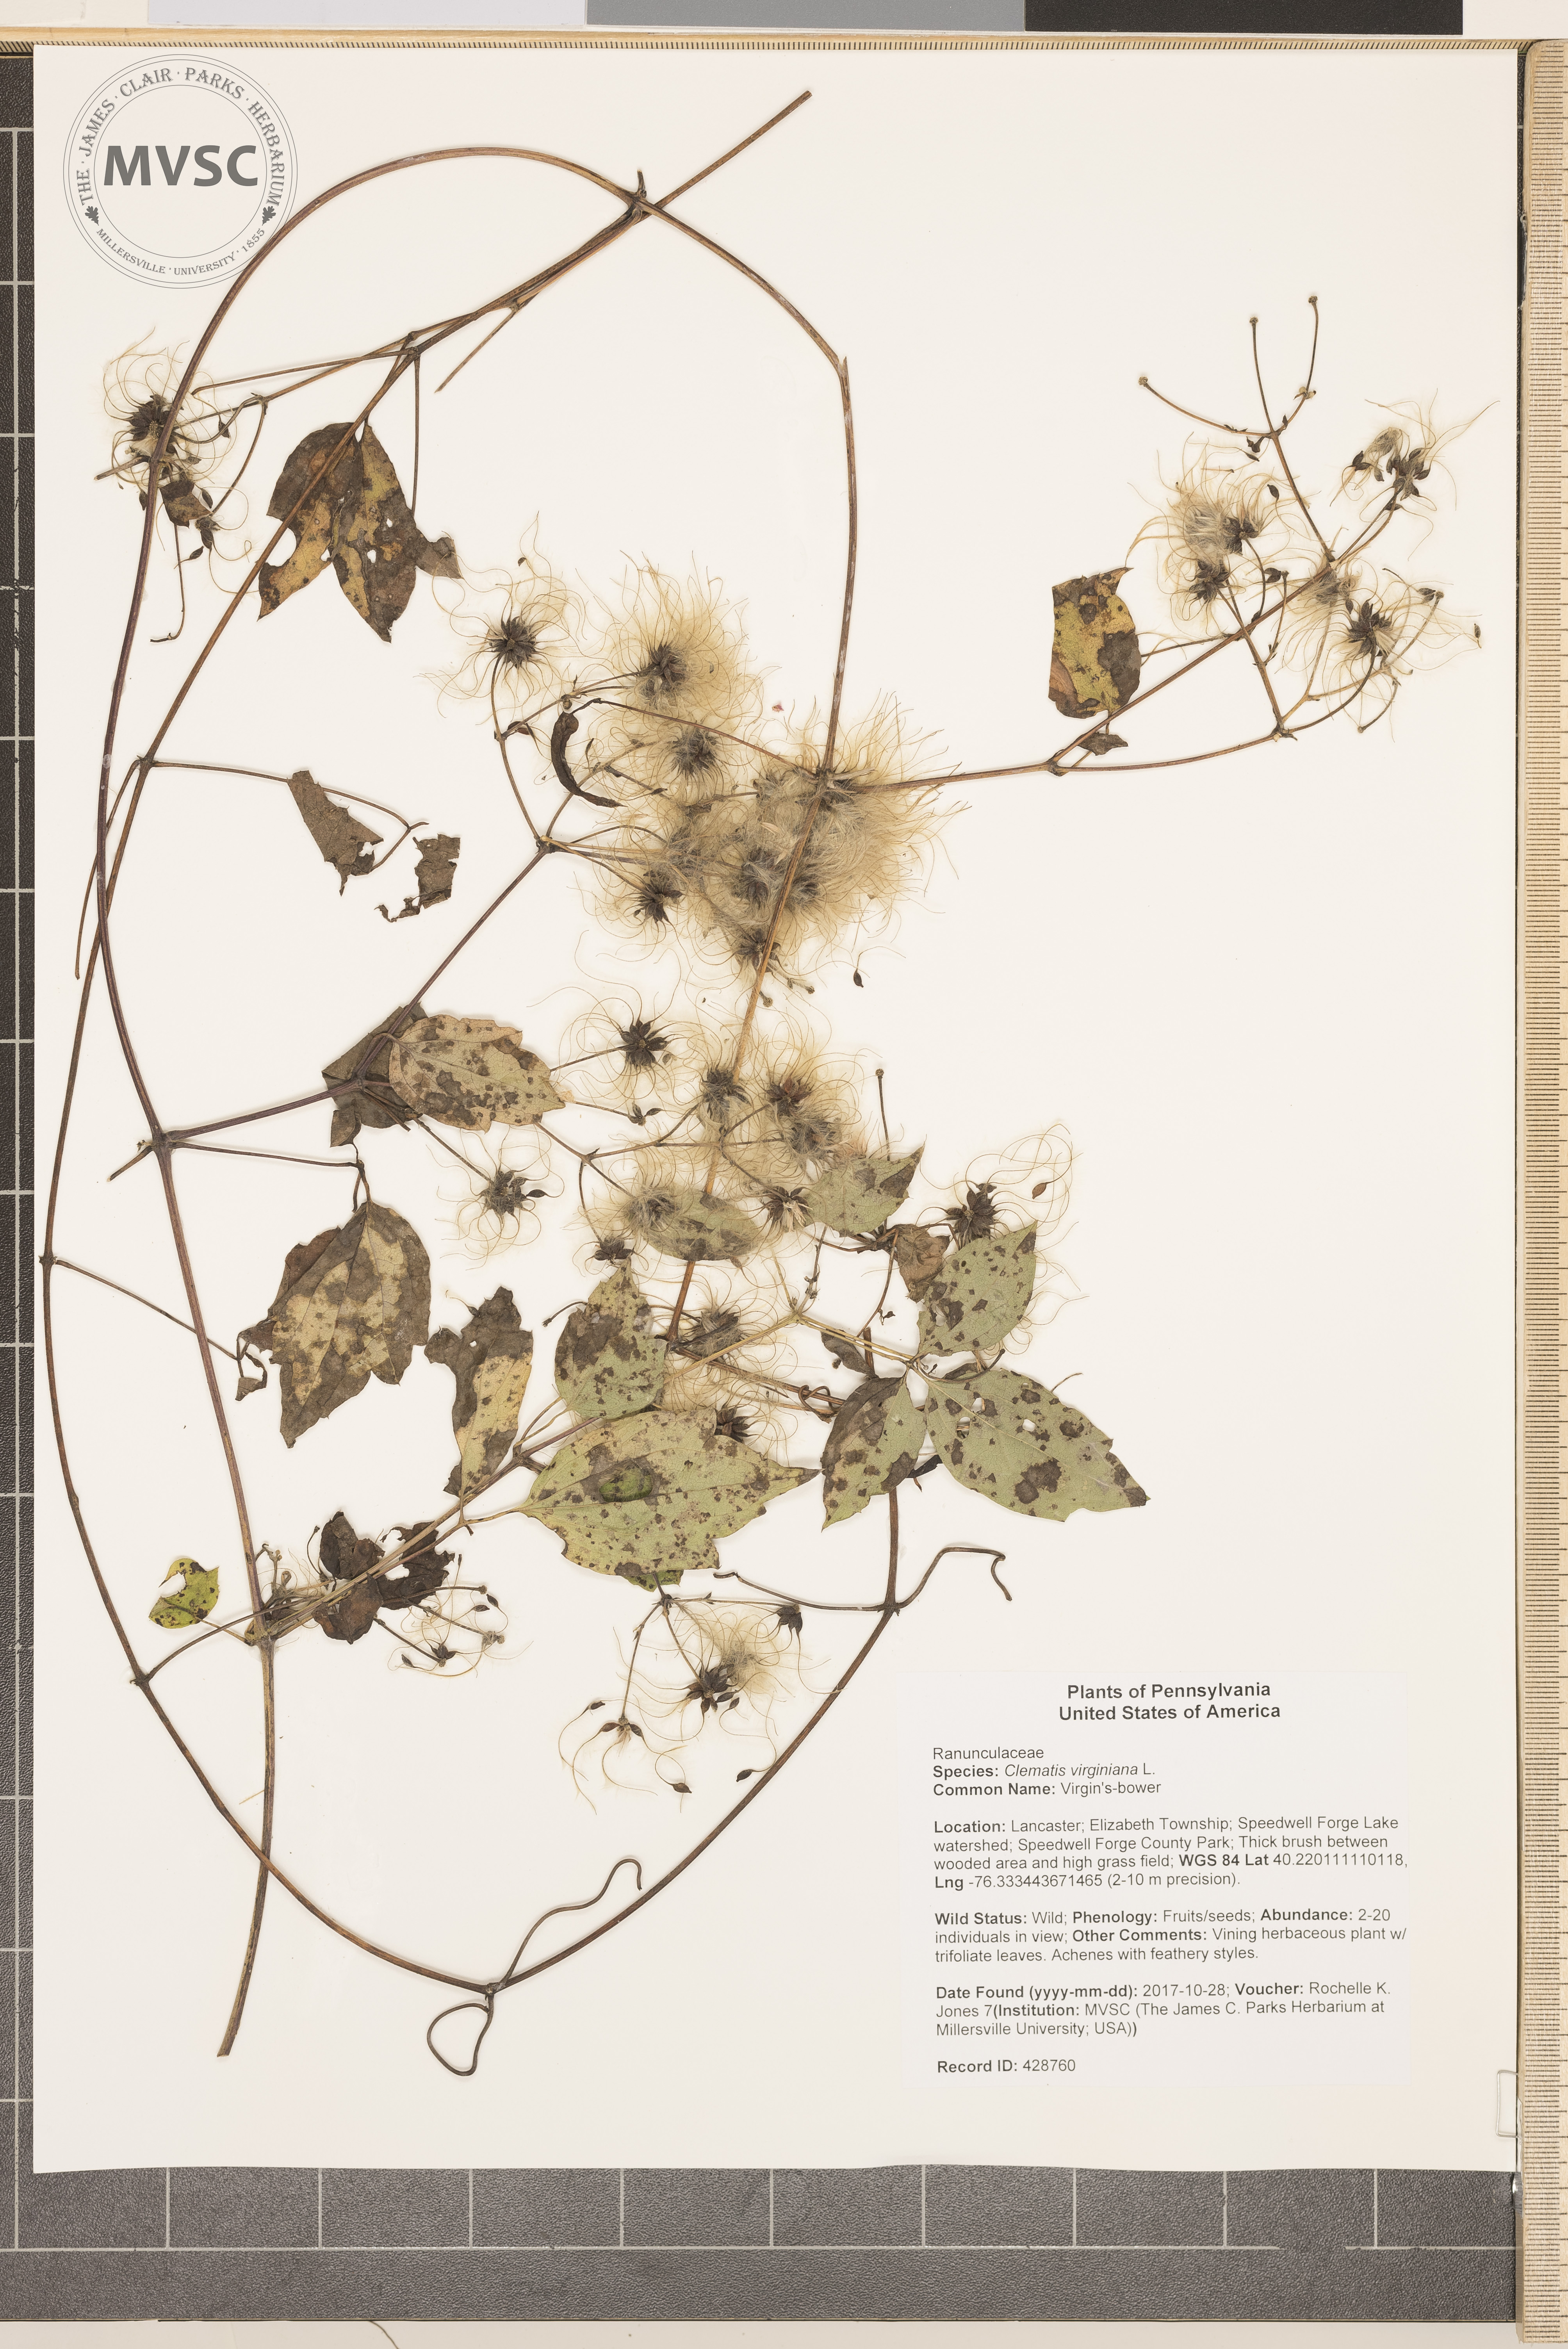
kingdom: Plantae
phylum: Tracheophyta
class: Magnoliopsida
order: Ranunculales
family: Ranunculaceae
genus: Clematis
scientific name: Clematis virginiana
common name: Virgin's-bower
